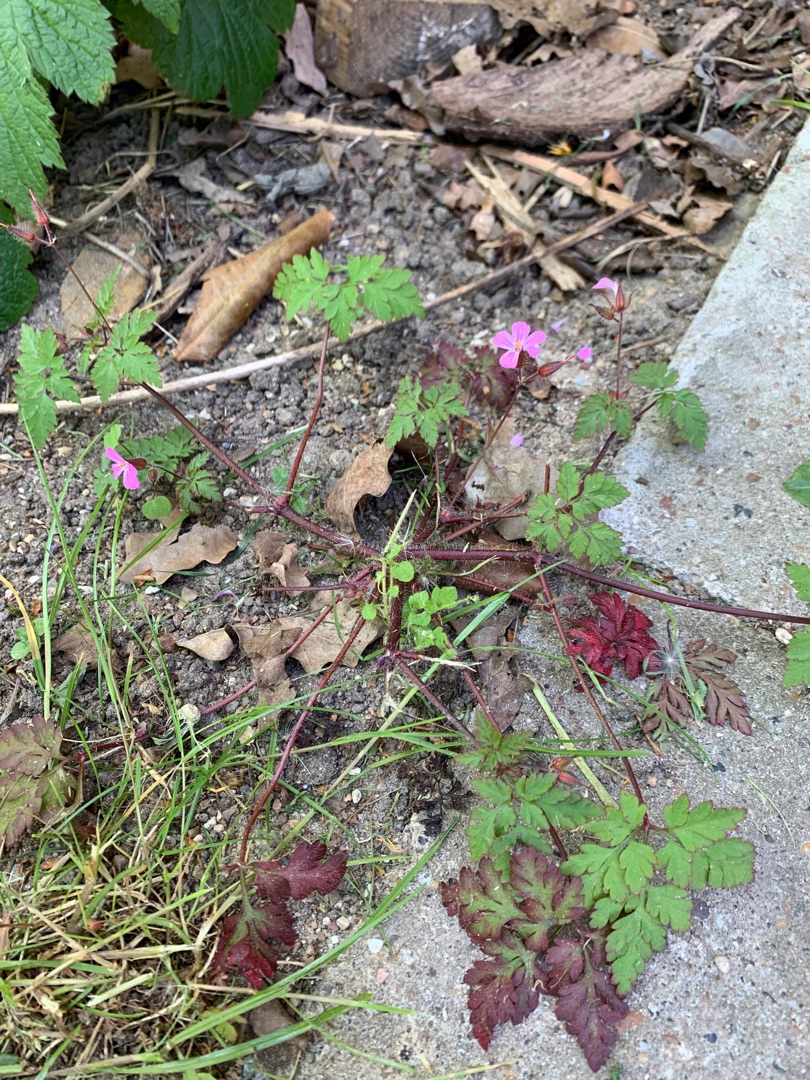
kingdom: Plantae
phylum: Tracheophyta
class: Magnoliopsida
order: Geraniales
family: Geraniaceae
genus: Geranium
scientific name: Geranium robertianum
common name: Stinkende storkenæb
